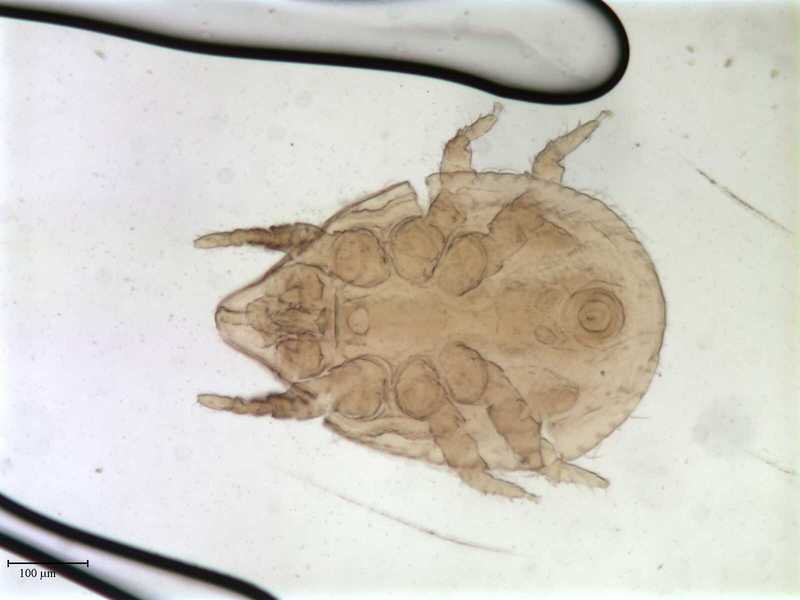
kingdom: Animalia
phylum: Arthropoda
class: Arachnida
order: Mesostigmata
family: Dithinozerconidae
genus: Uroseius
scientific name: Uroseius
